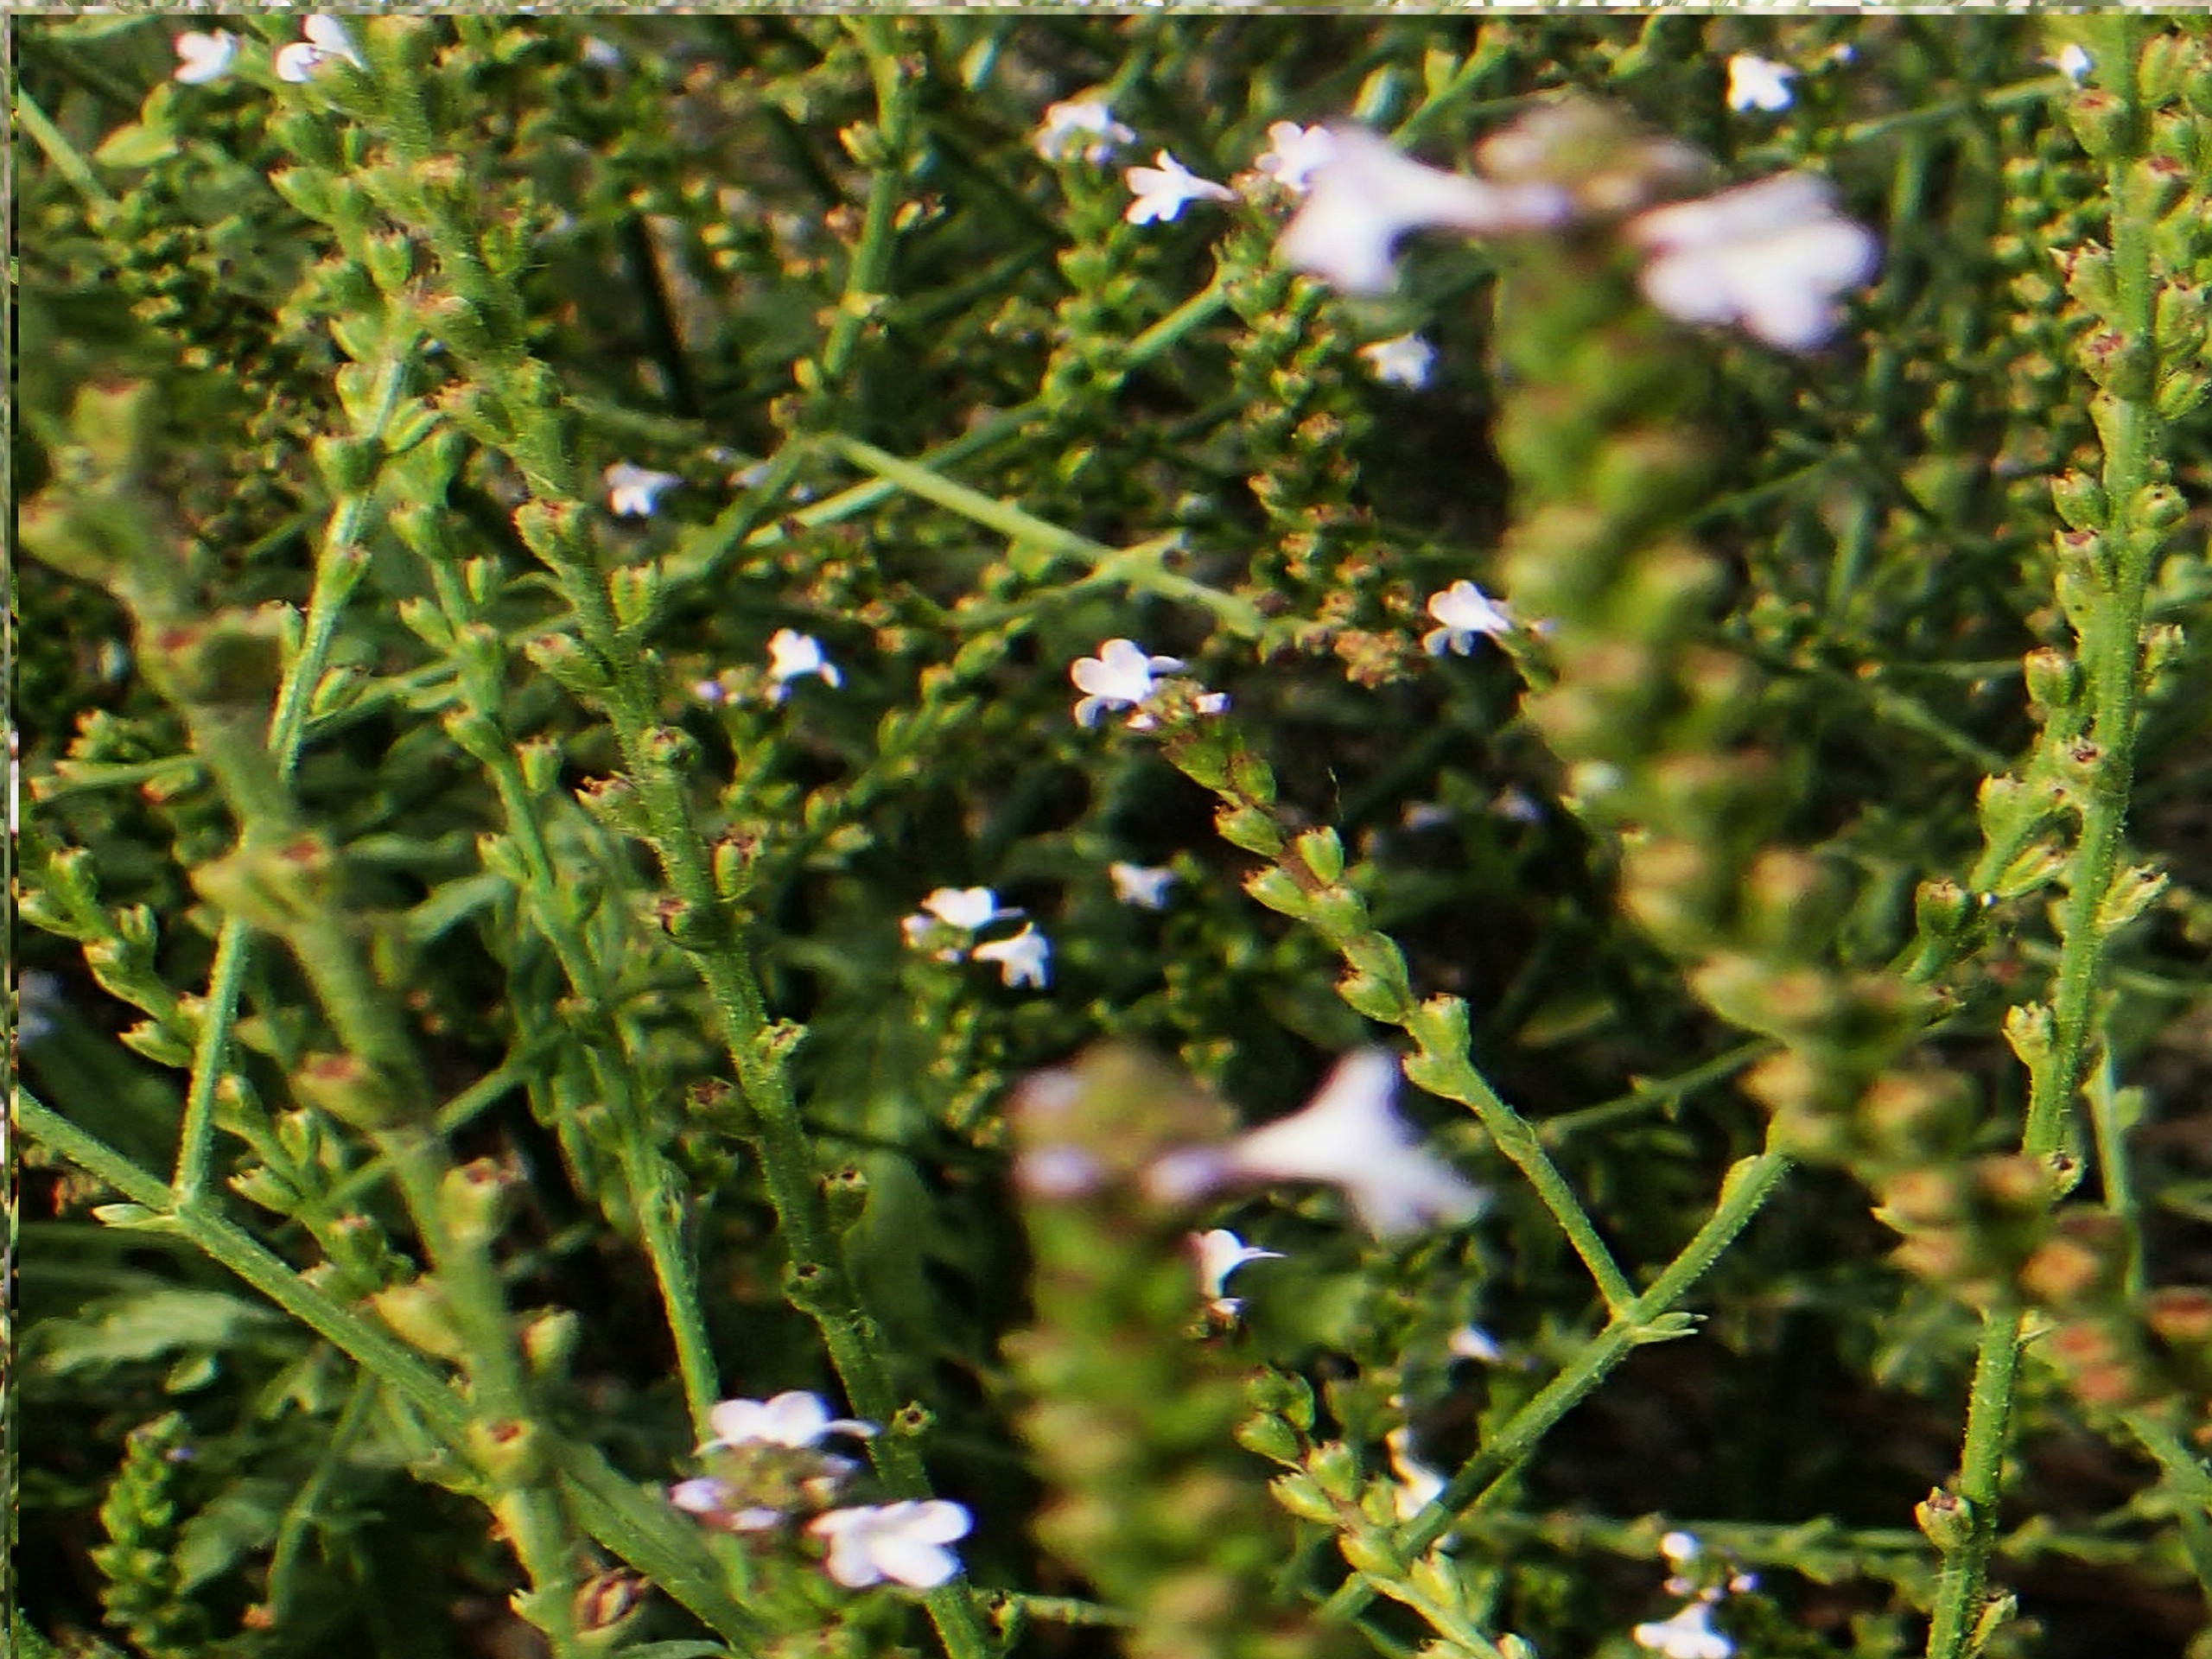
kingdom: Plantae
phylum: Tracheophyta
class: Magnoliopsida
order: Lamiales
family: Verbenaceae
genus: Verbena
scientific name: Verbena officinalis
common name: Læge-jernurt
